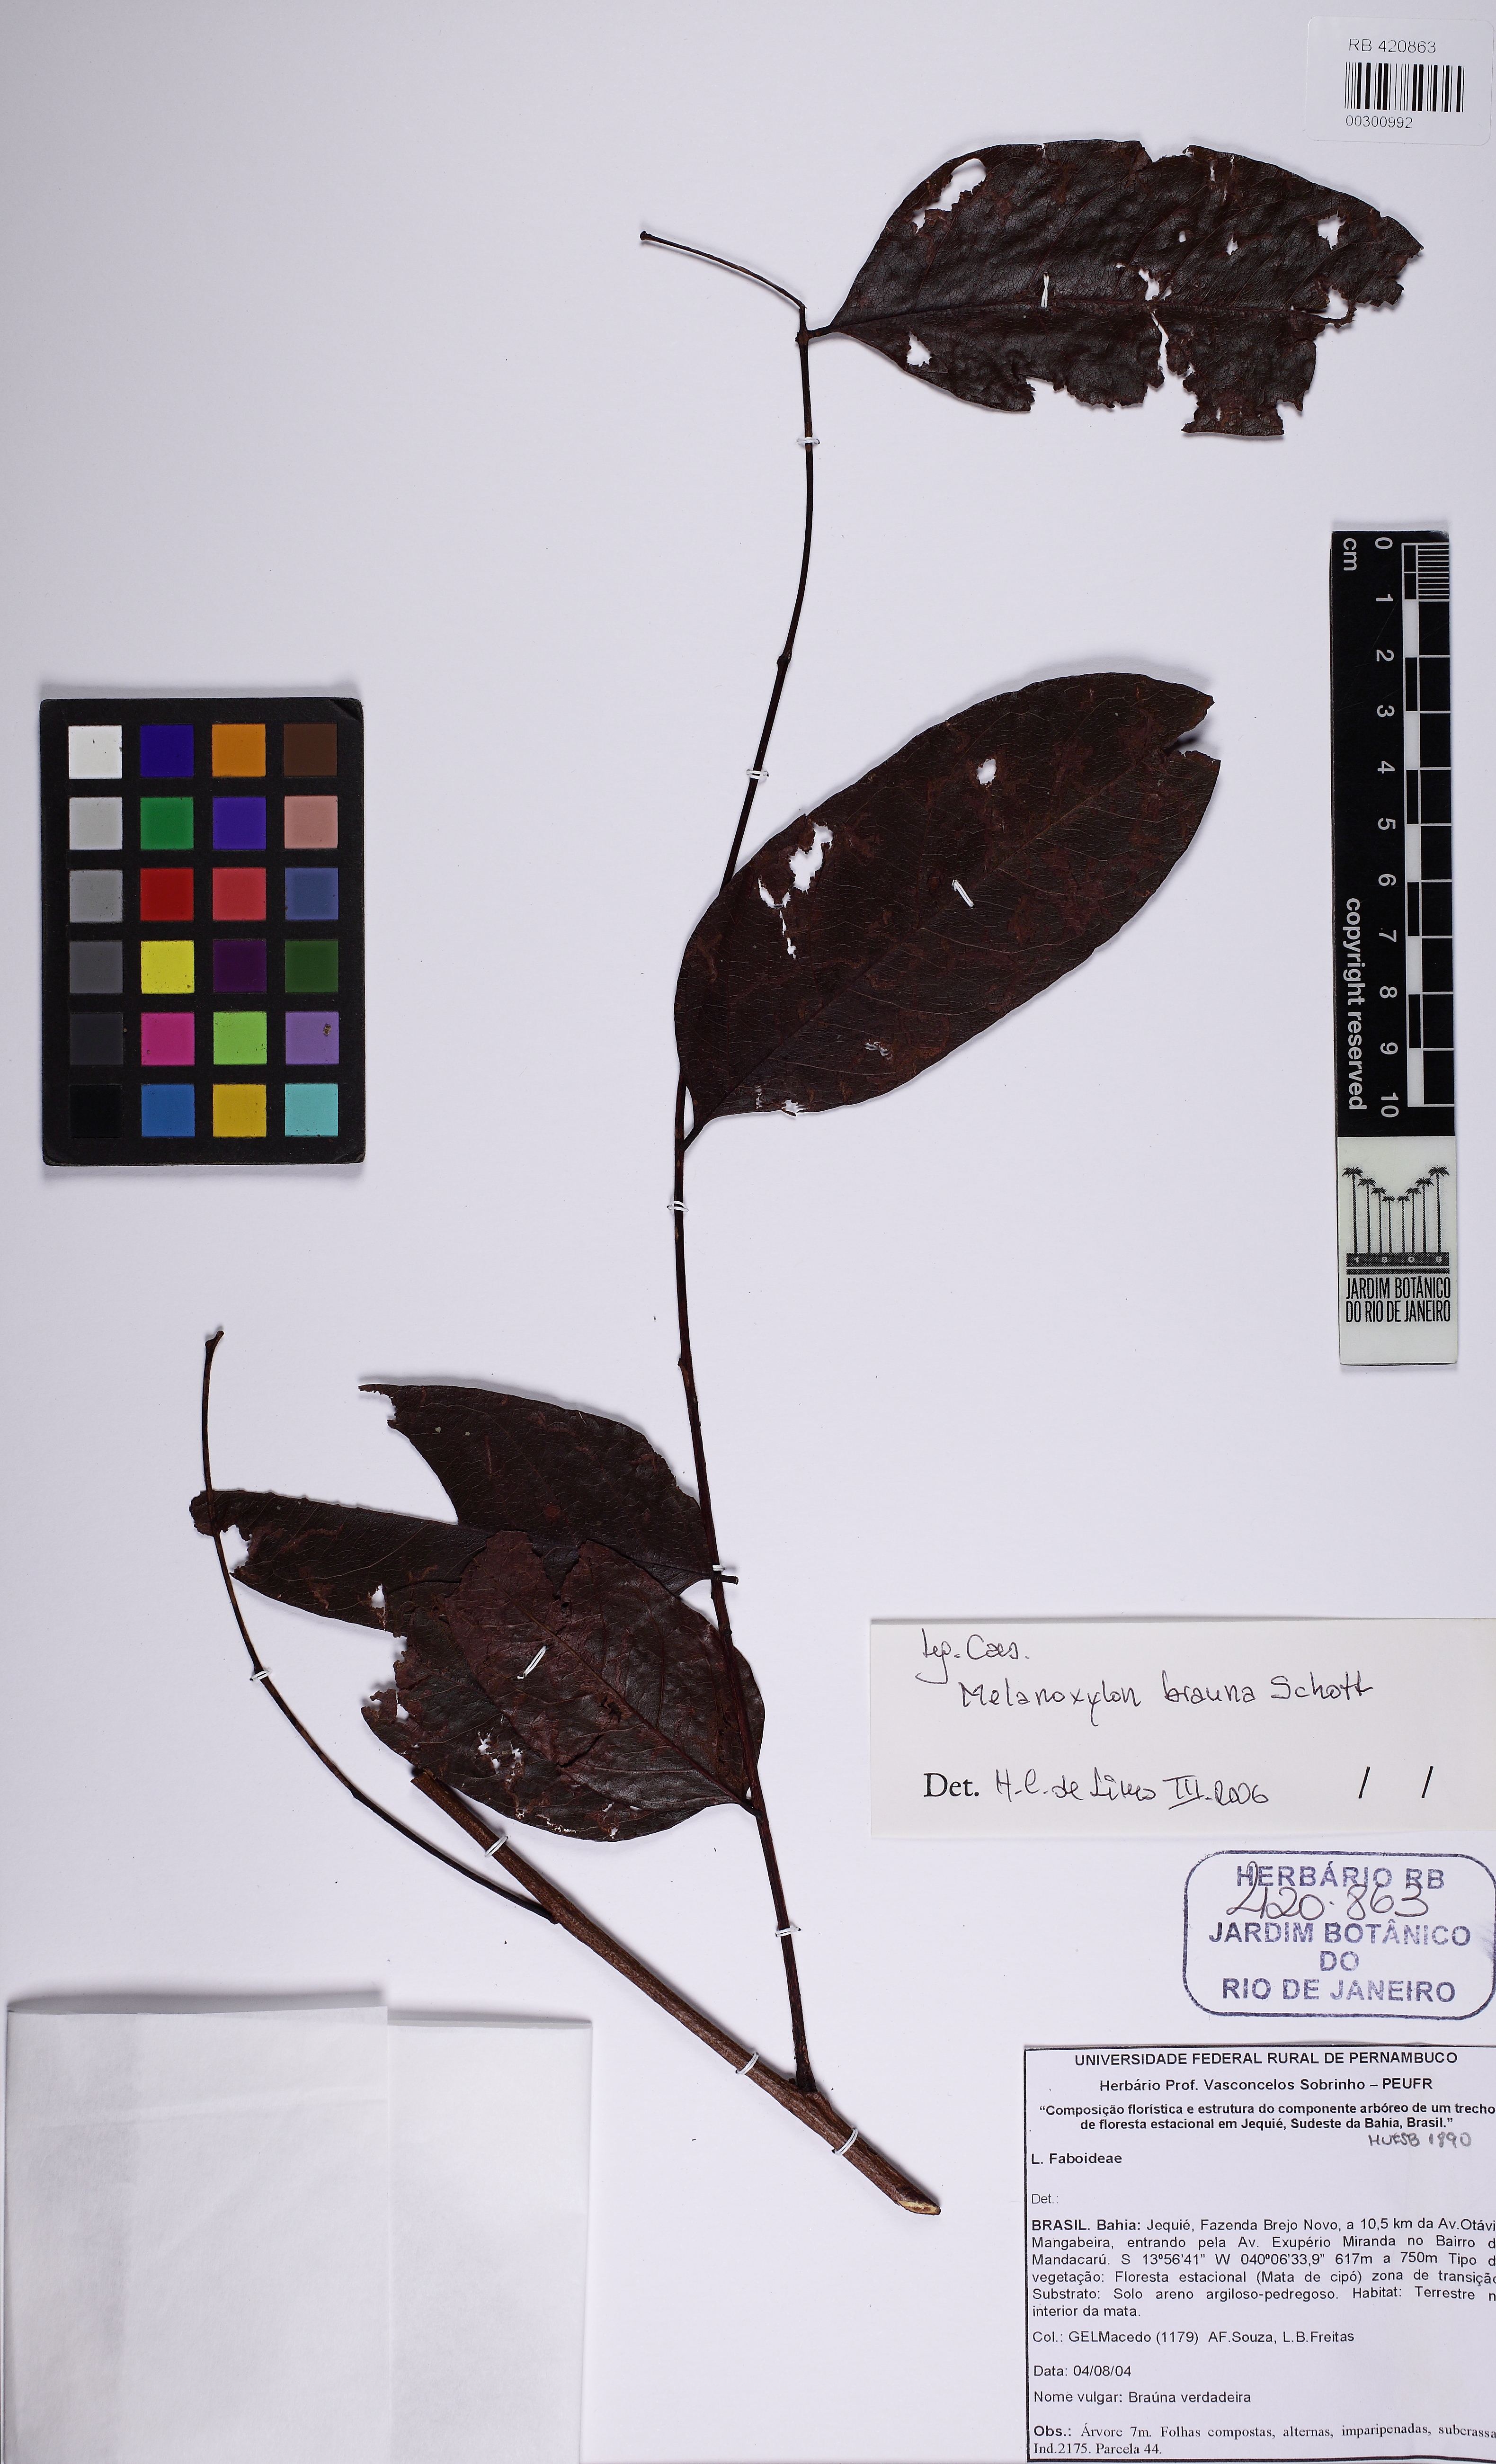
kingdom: Plantae
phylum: Tracheophyta
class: Magnoliopsida
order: Fabales
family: Fabaceae
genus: Melanoxylon
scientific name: Melanoxylon brauna
